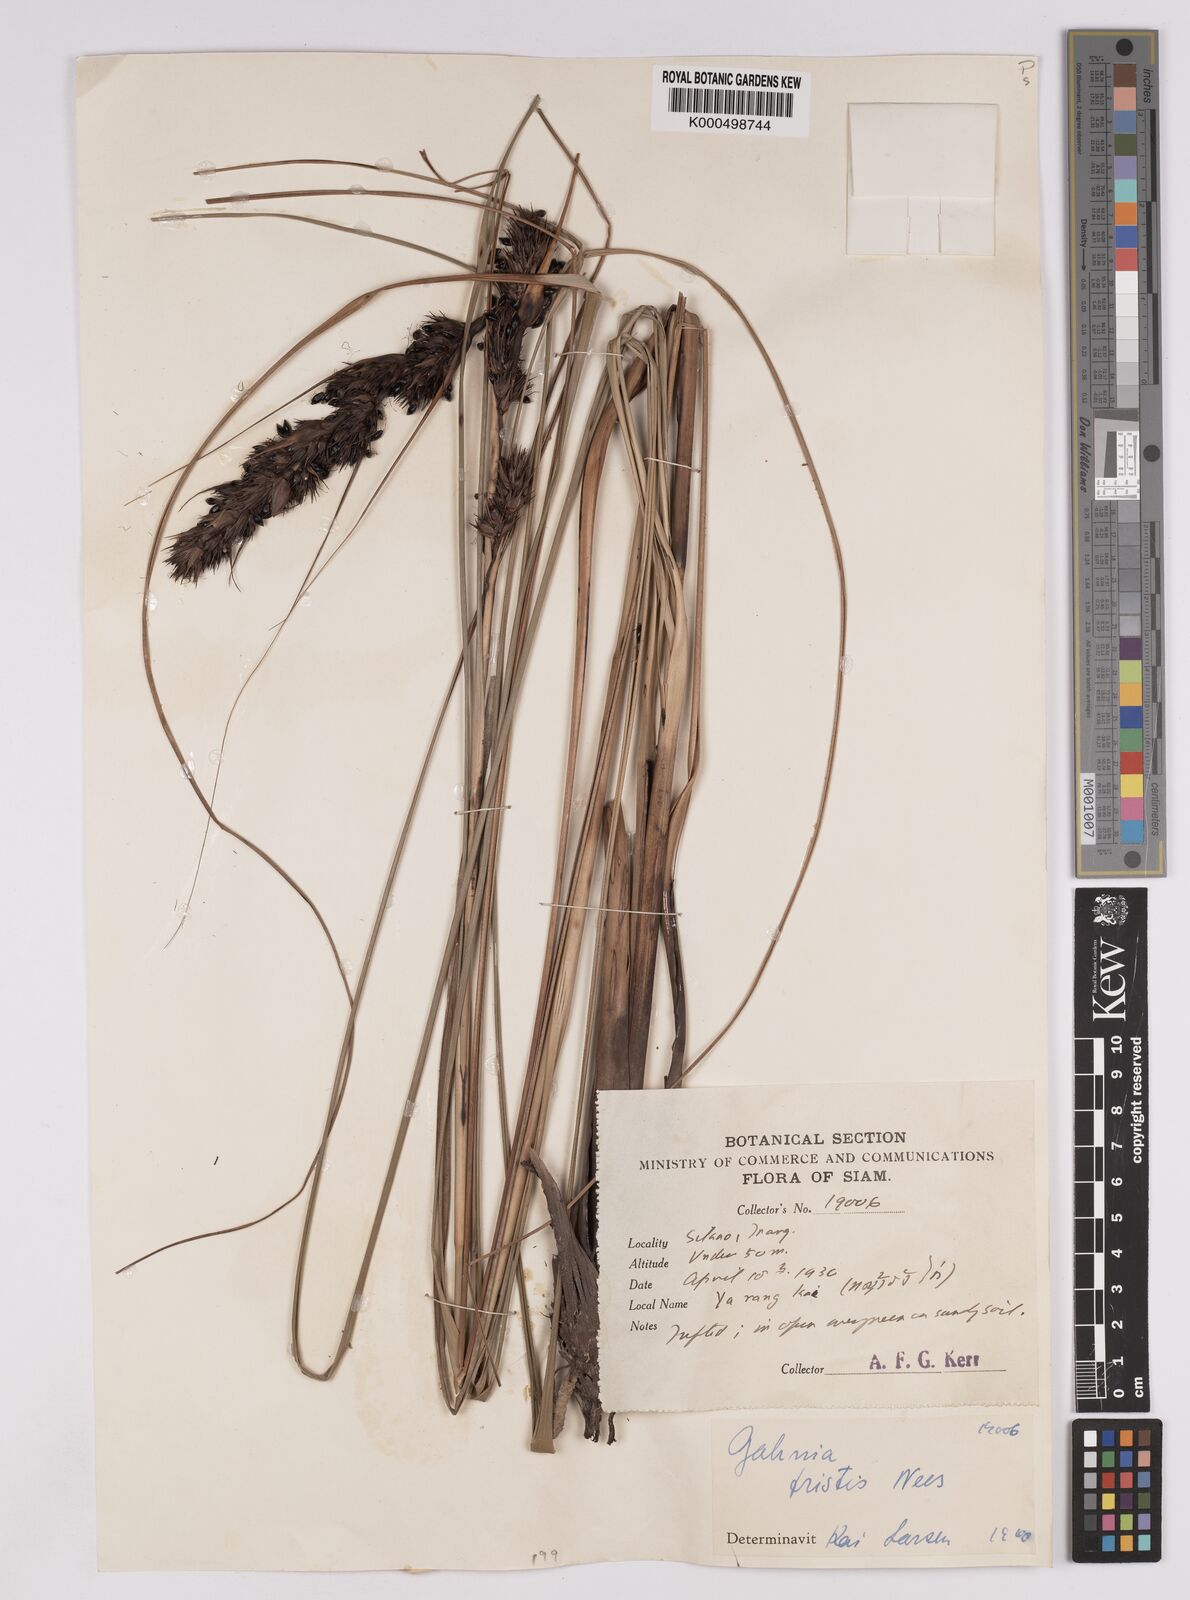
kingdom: Plantae
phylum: Tracheophyta
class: Liliopsida
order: Poales
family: Cyperaceae
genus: Gahnia
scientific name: Gahnia tristis
